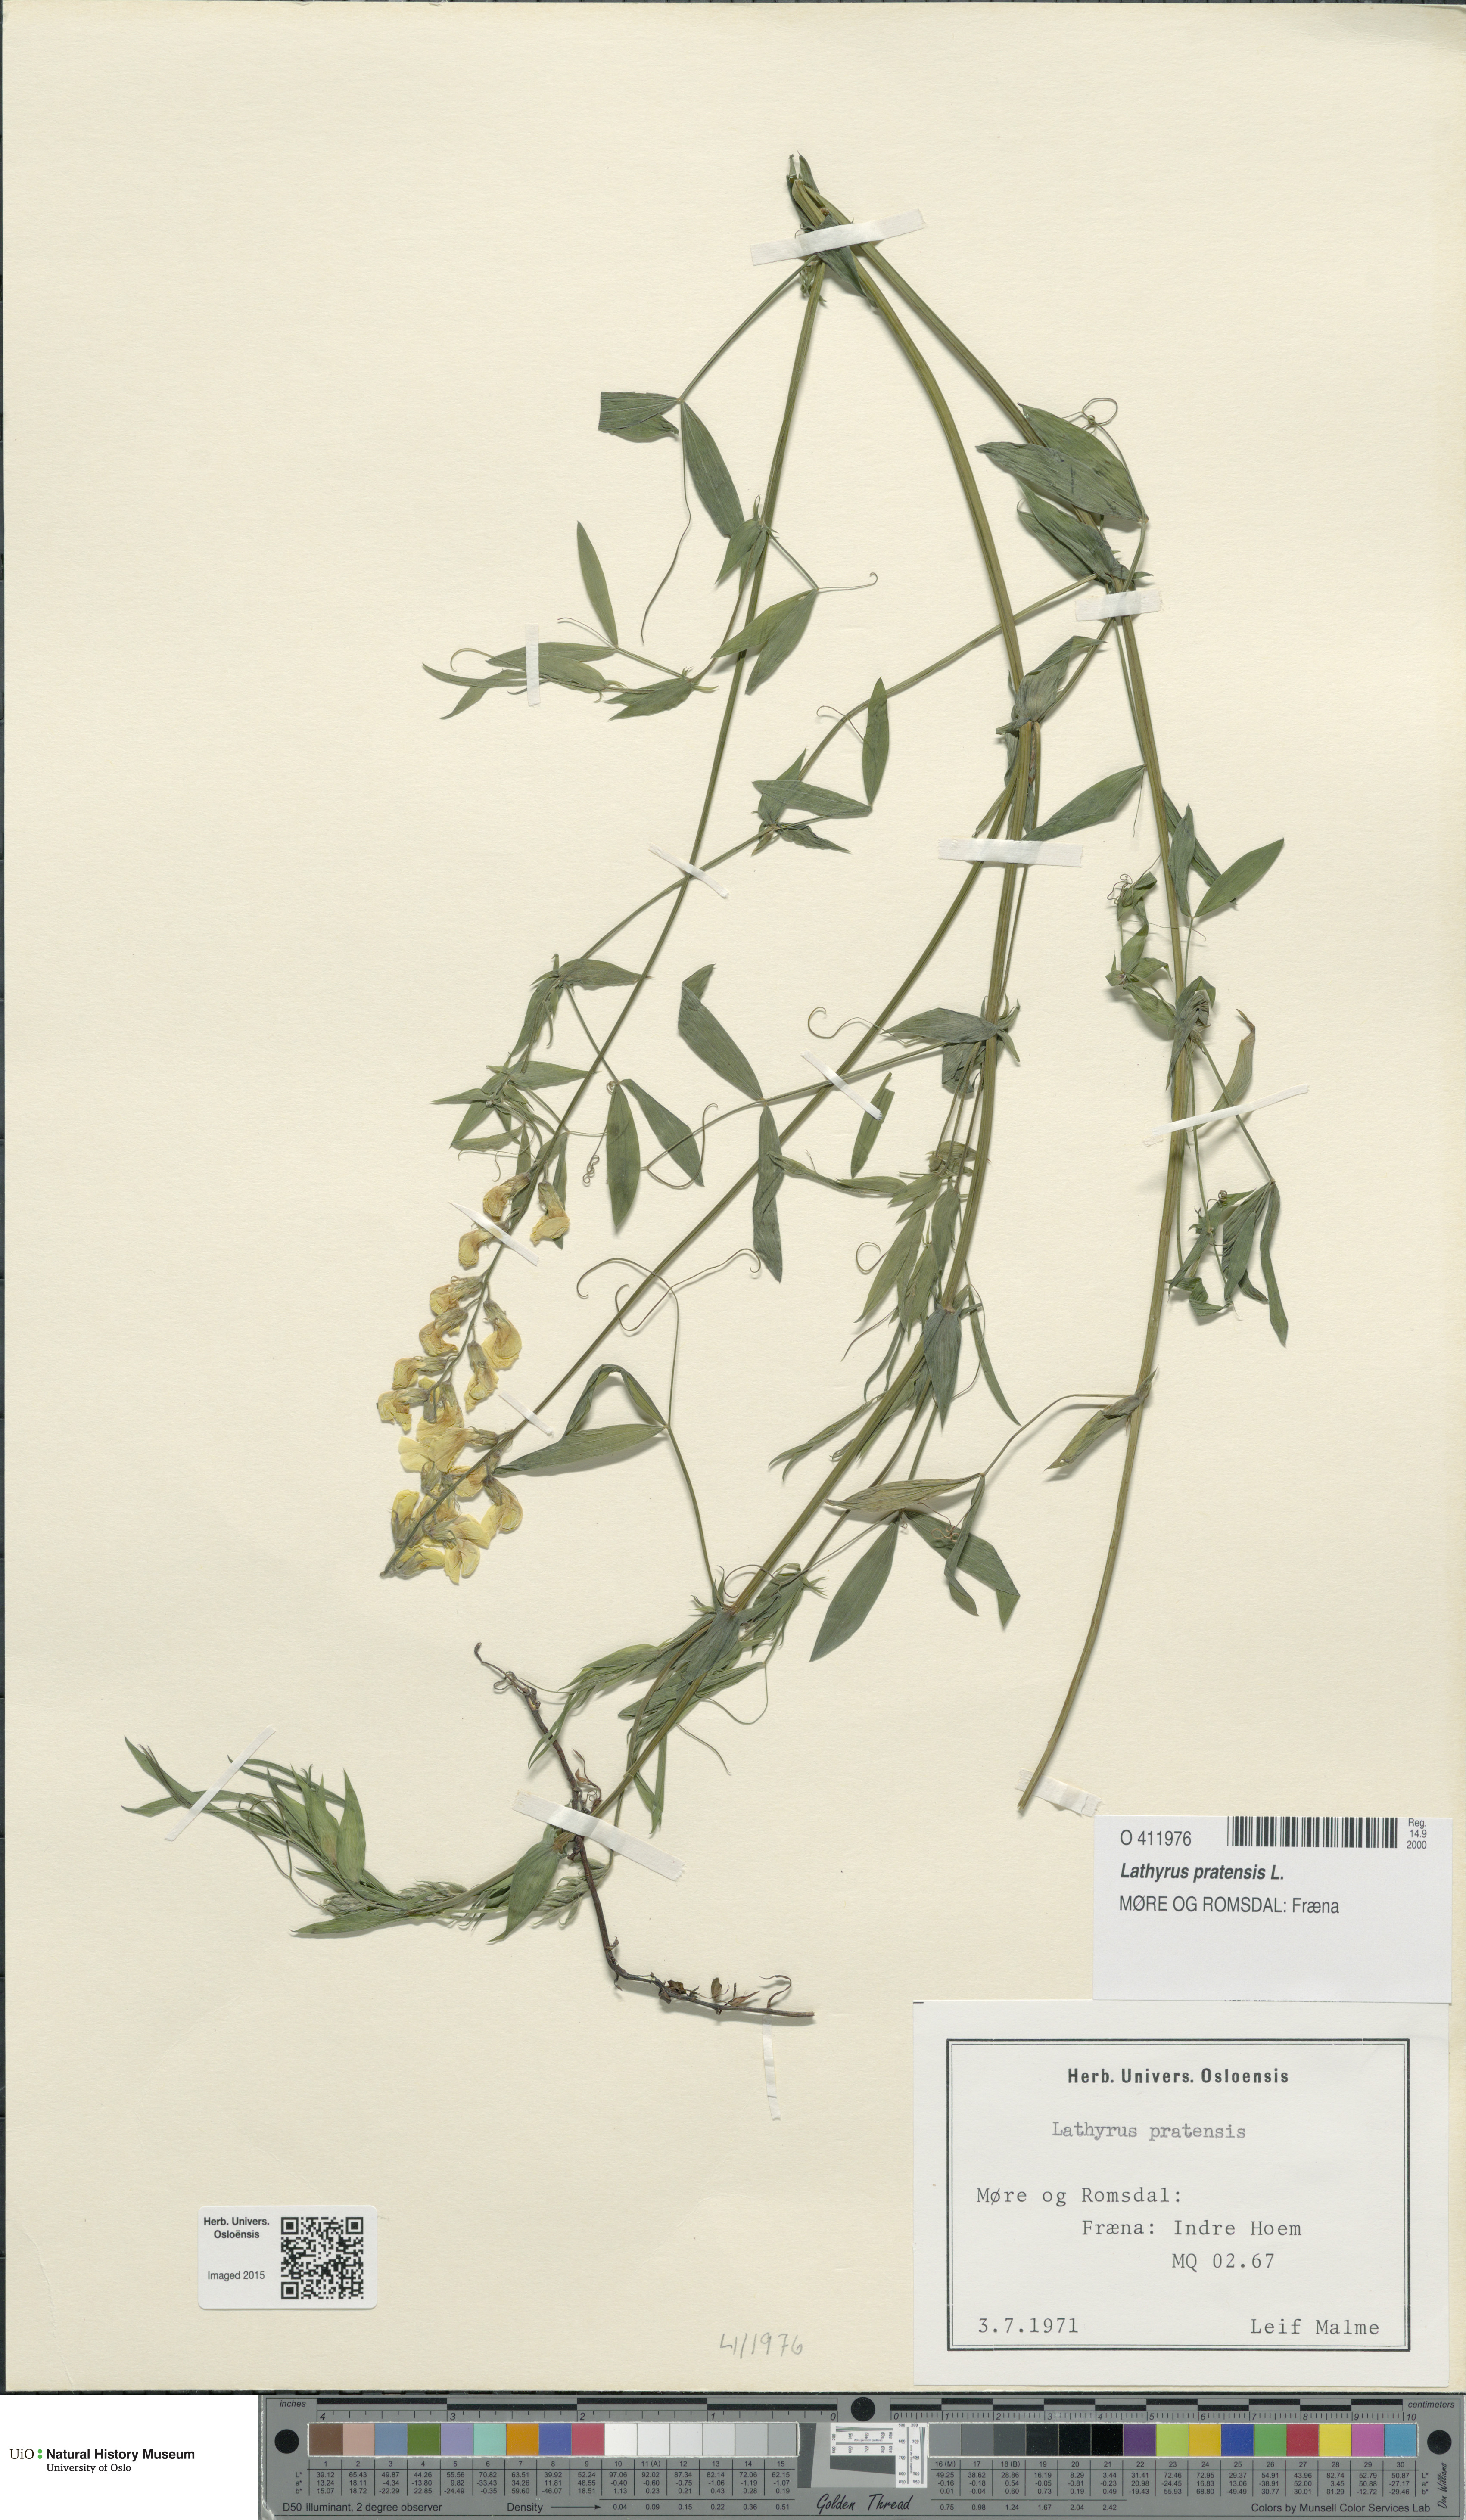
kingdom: Plantae
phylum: Tracheophyta
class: Magnoliopsida
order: Fabales
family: Fabaceae
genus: Lathyrus
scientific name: Lathyrus pratensis
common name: Meadow vetchling
